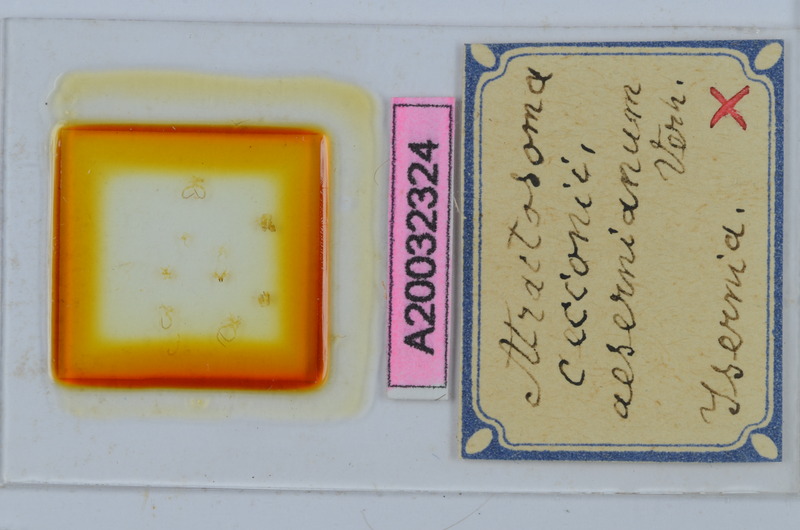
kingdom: Animalia
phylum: Arthropoda
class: Diplopoda
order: Chordeumatida
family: Craspedosomatidae
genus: Atractosoma
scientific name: Atractosoma cecconii
